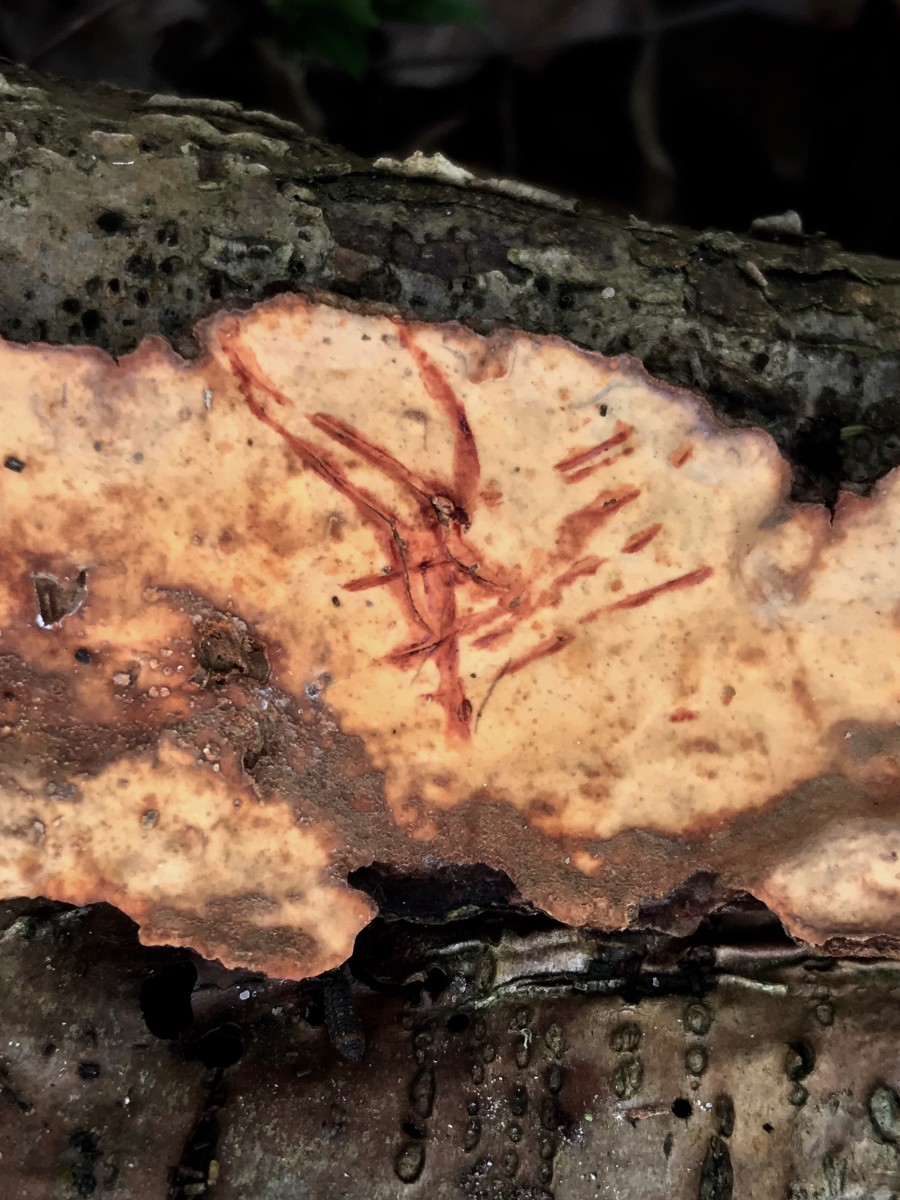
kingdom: Fungi
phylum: Basidiomycota
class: Agaricomycetes
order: Russulales
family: Stereaceae
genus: Stereum
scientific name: Stereum rugosum
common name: rynket lædersvamp
